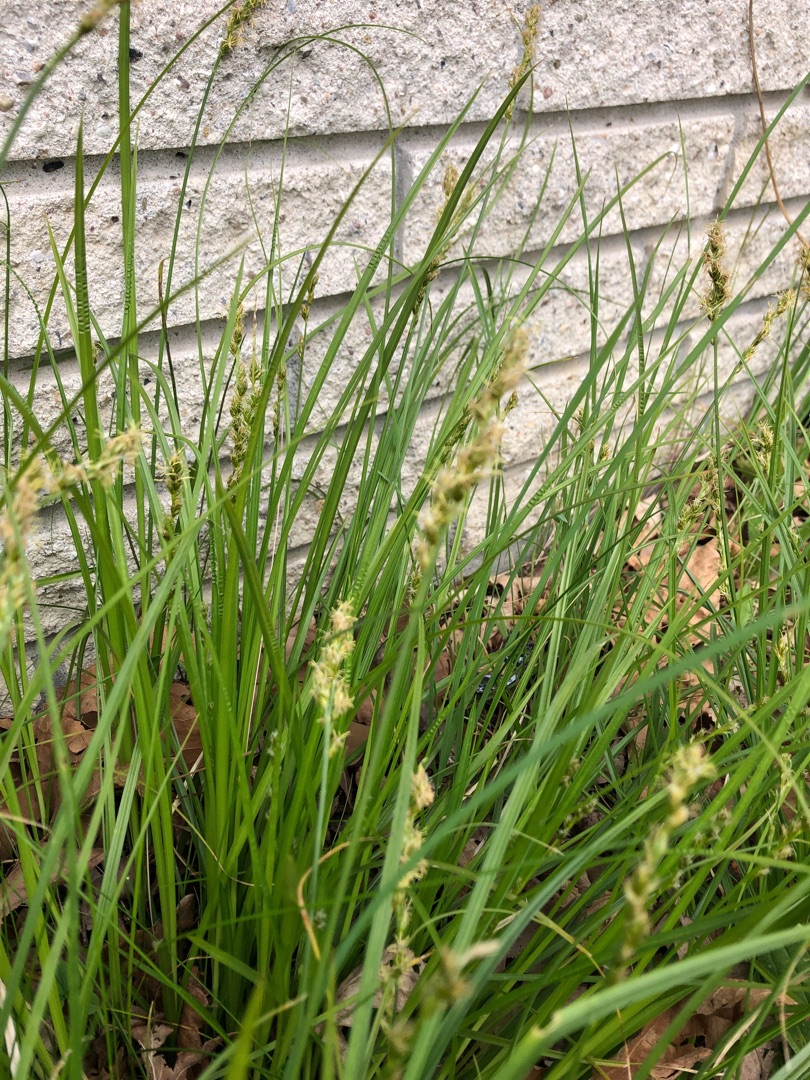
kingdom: Plantae
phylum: Tracheophyta
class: Liliopsida
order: Poales
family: Cyperaceae
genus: Carex
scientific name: Carex divulsa
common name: Mellembrudt star
